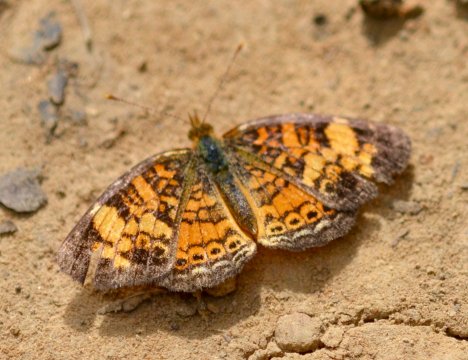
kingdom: Animalia
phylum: Arthropoda
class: Insecta
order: Lepidoptera
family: Nymphalidae
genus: Phyciodes
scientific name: Phyciodes tharos
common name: Pearl Crescent
